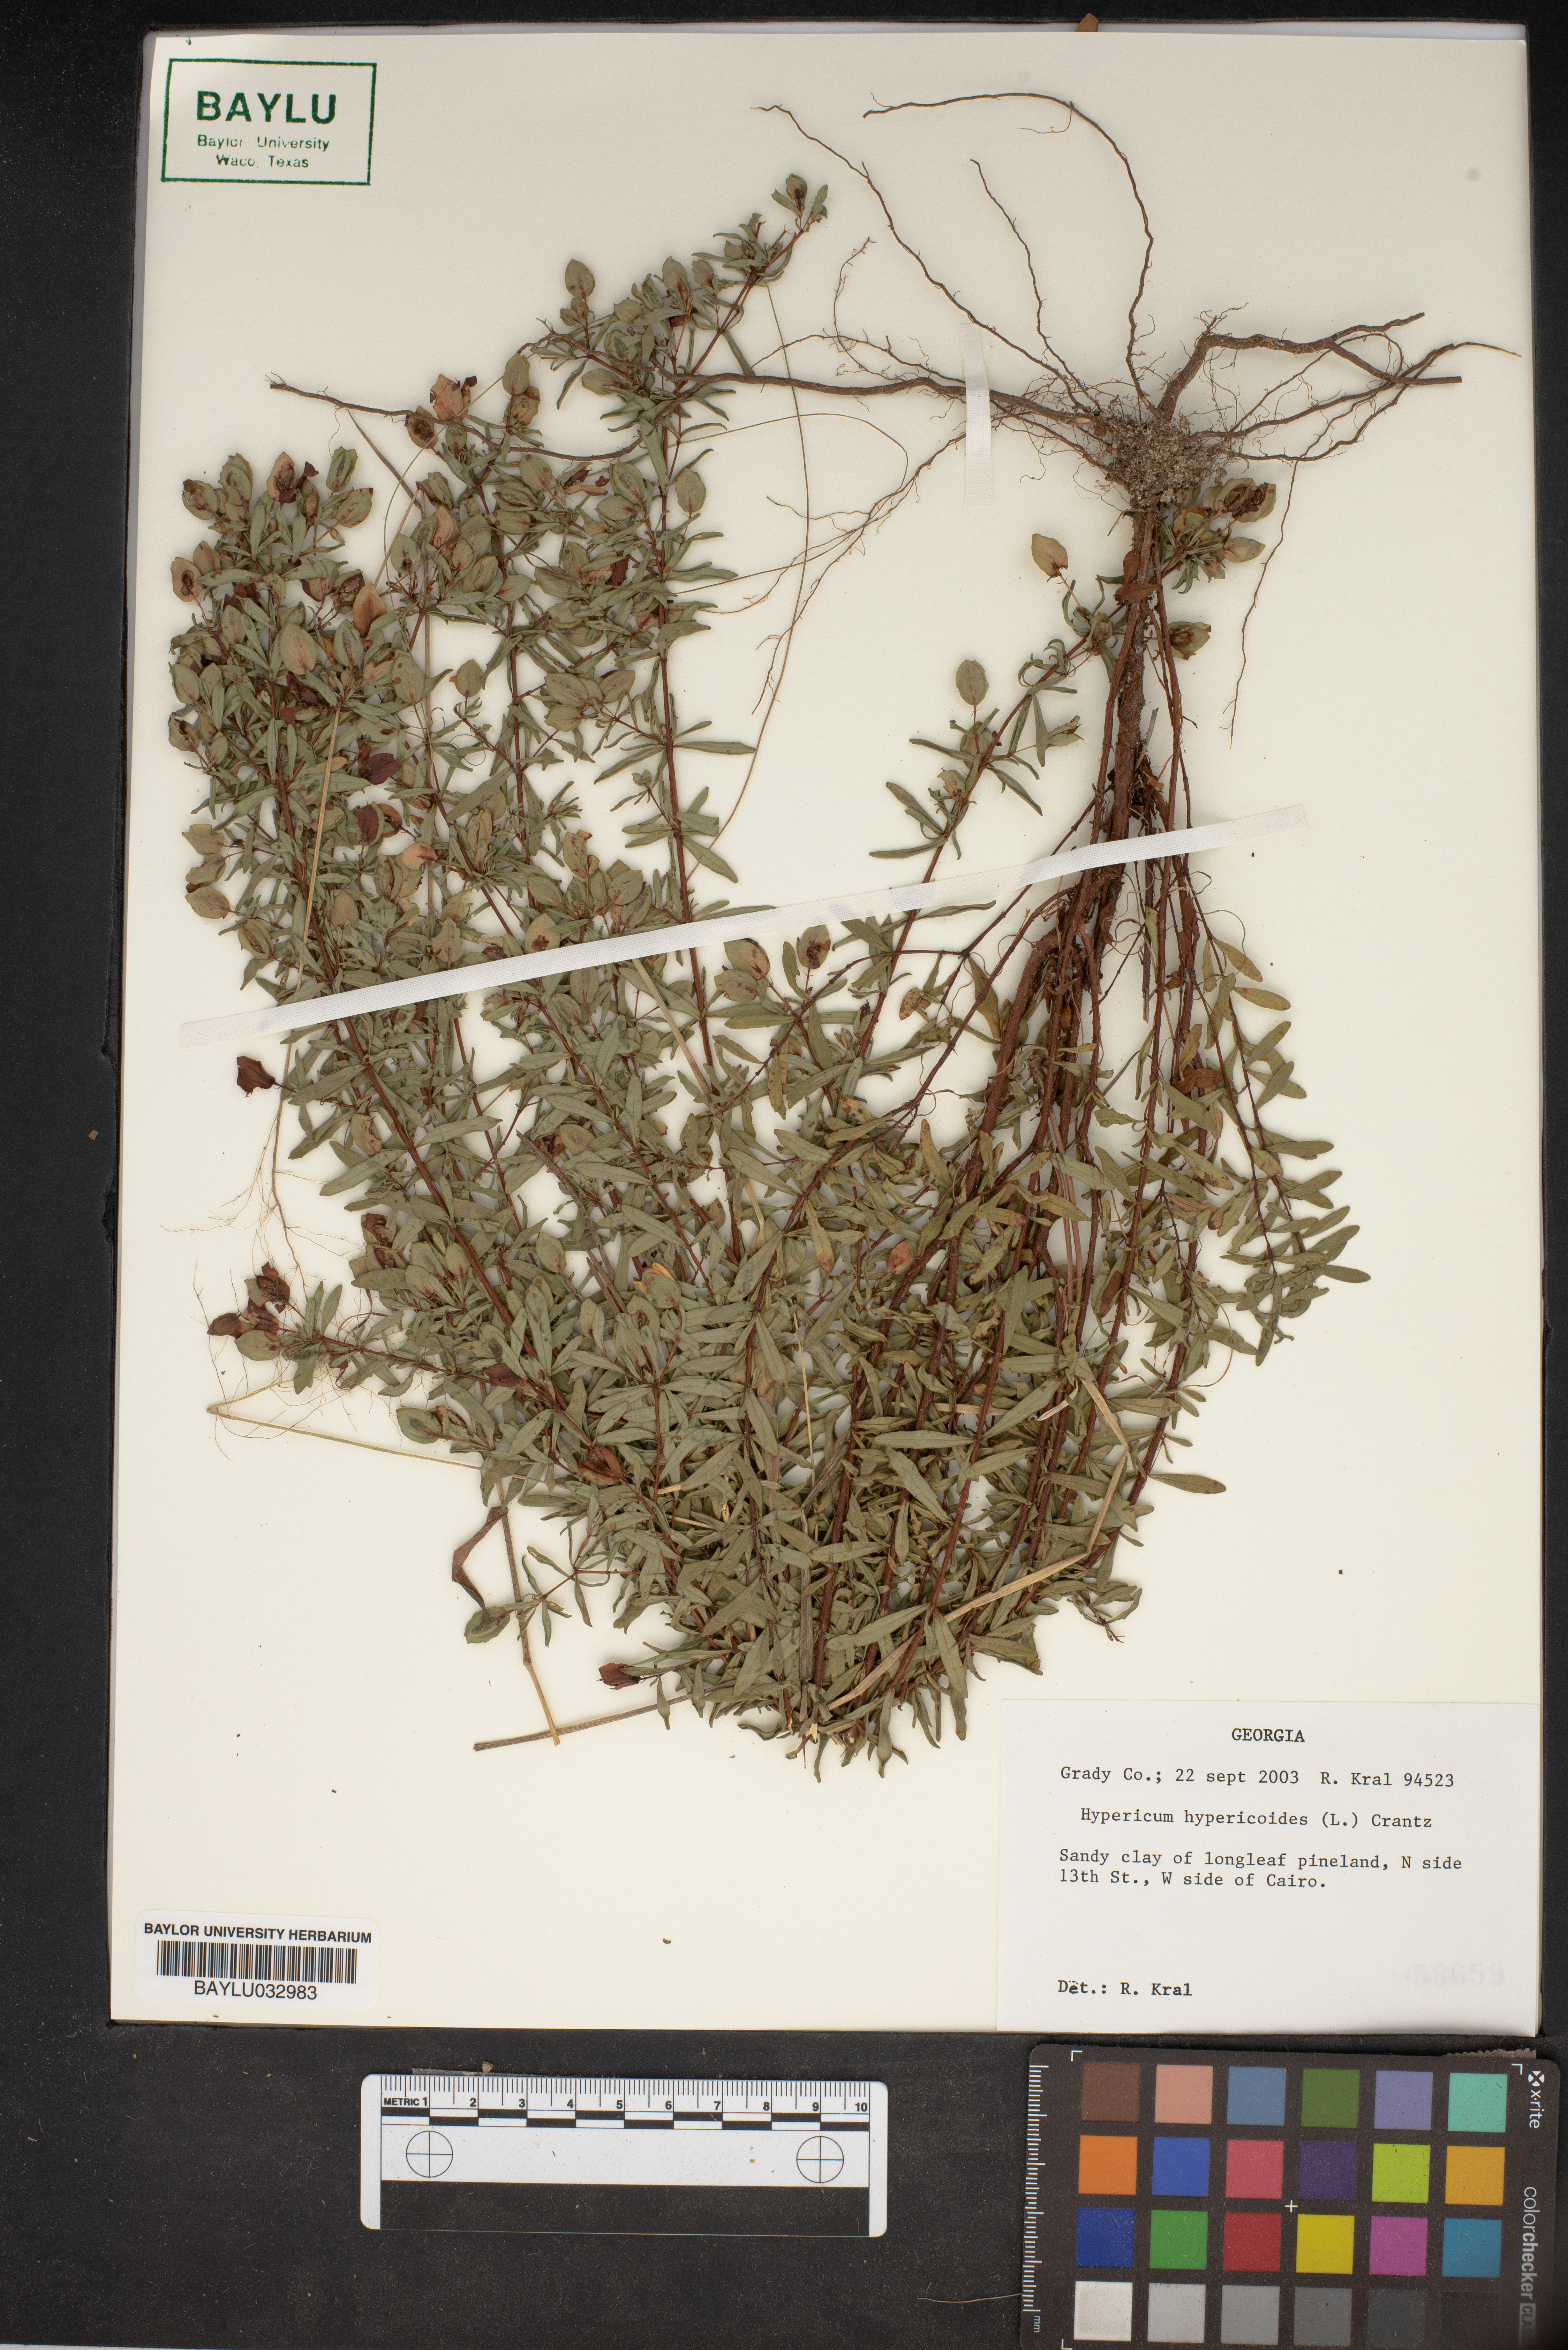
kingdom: Plantae
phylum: Tracheophyta
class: Magnoliopsida
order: Malpighiales
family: Hypericaceae
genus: Hypericum
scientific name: Hypericum hypericoides
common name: St. andrew's cross
